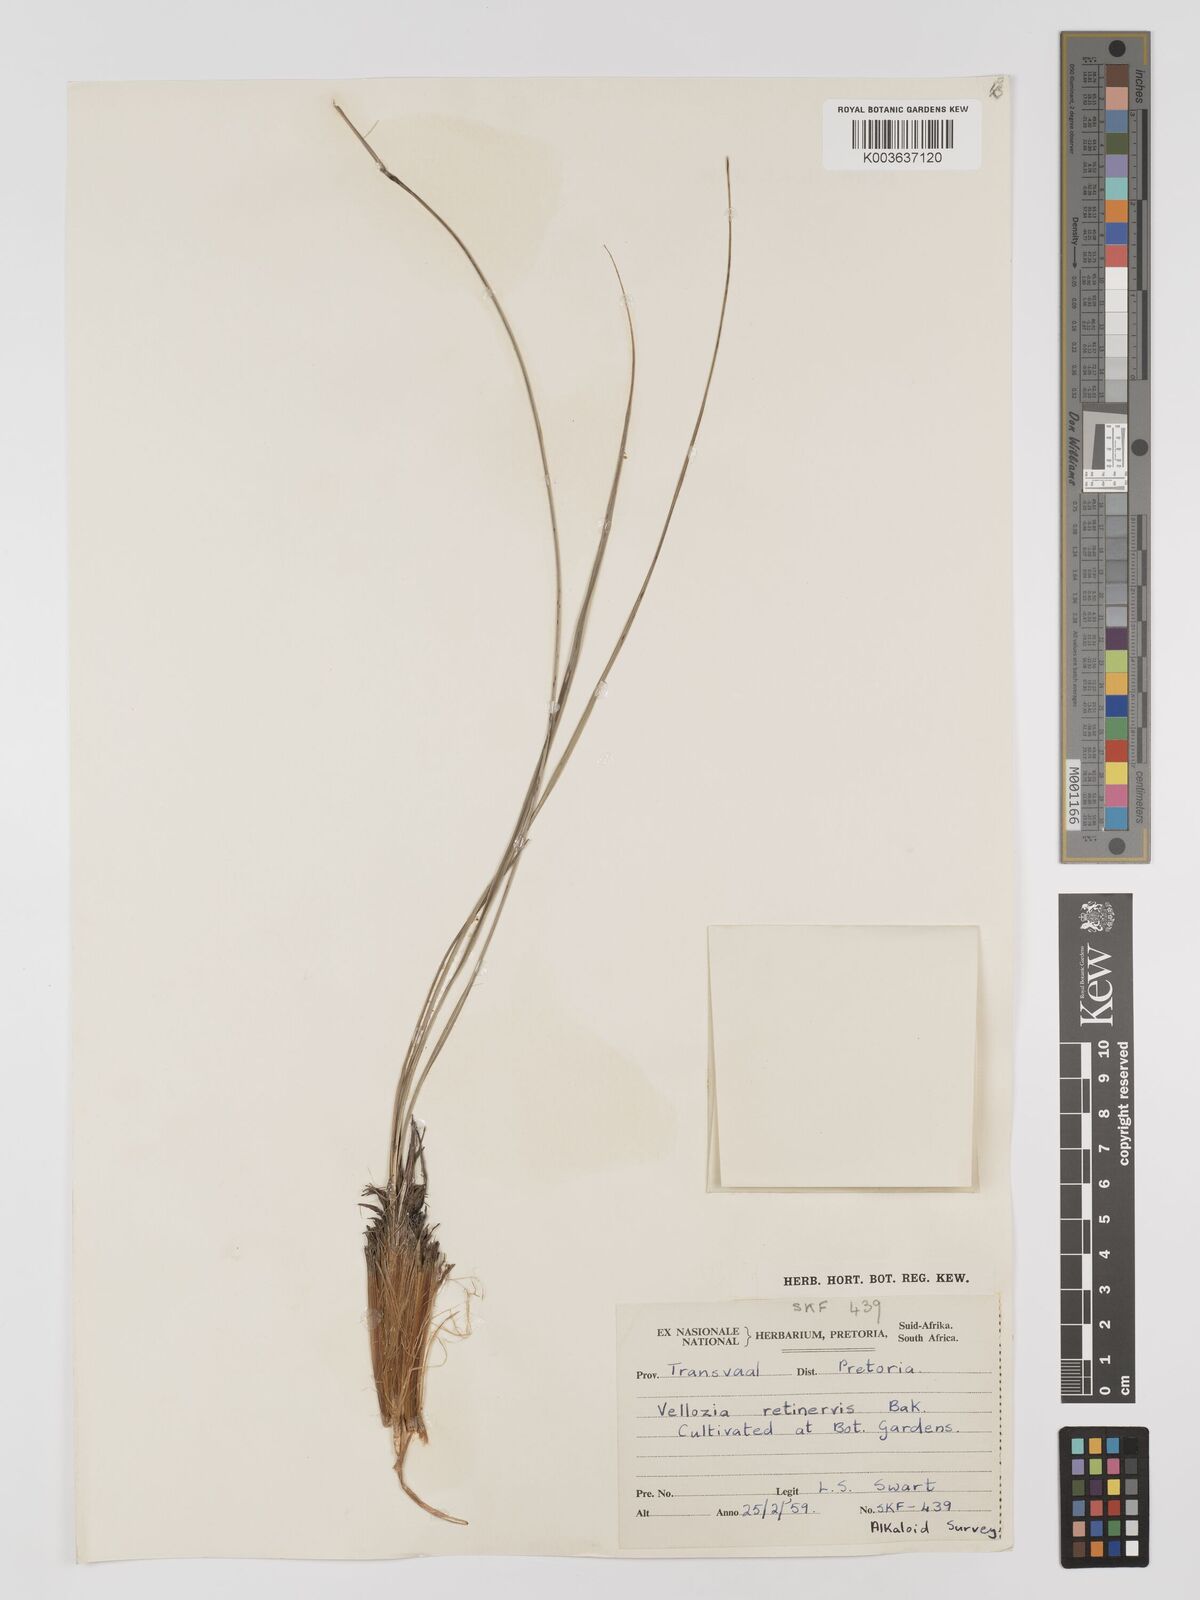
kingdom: Plantae
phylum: Tracheophyta
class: Liliopsida
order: Pandanales
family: Velloziaceae
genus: Xerophyta
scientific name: Xerophyta retinervis
